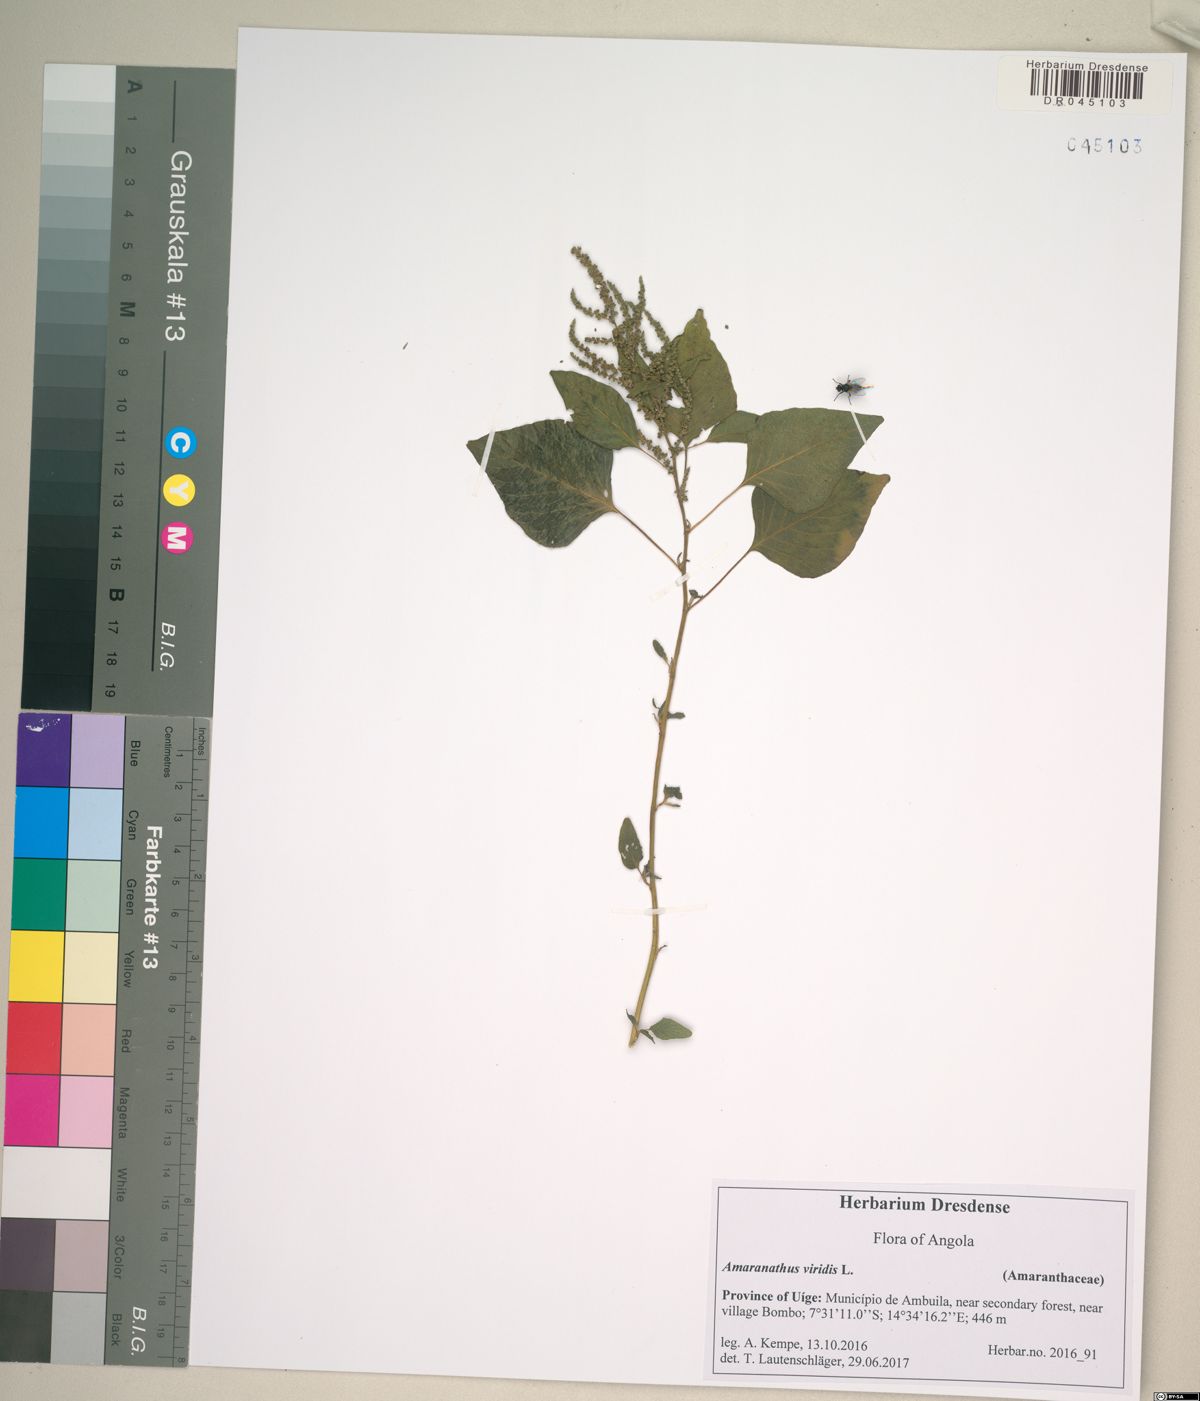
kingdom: Plantae
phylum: Tracheophyta
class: Magnoliopsida
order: Caryophyllales
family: Amaranthaceae
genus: Amaranthus
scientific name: Amaranthus viridis
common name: Slender amaranth
